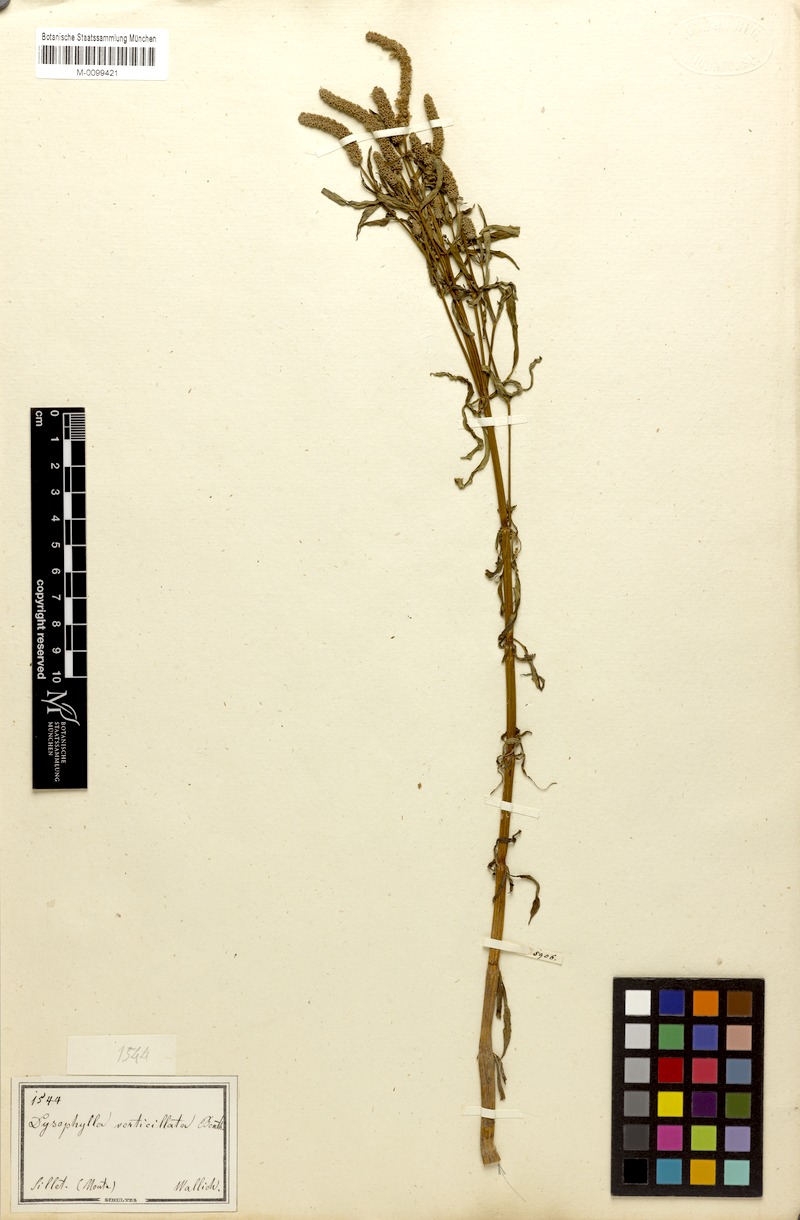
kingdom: Plantae
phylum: Tracheophyta
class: Magnoliopsida
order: Lamiales
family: Lamiaceae
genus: Pogostemon
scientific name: Pogostemon stellatus
